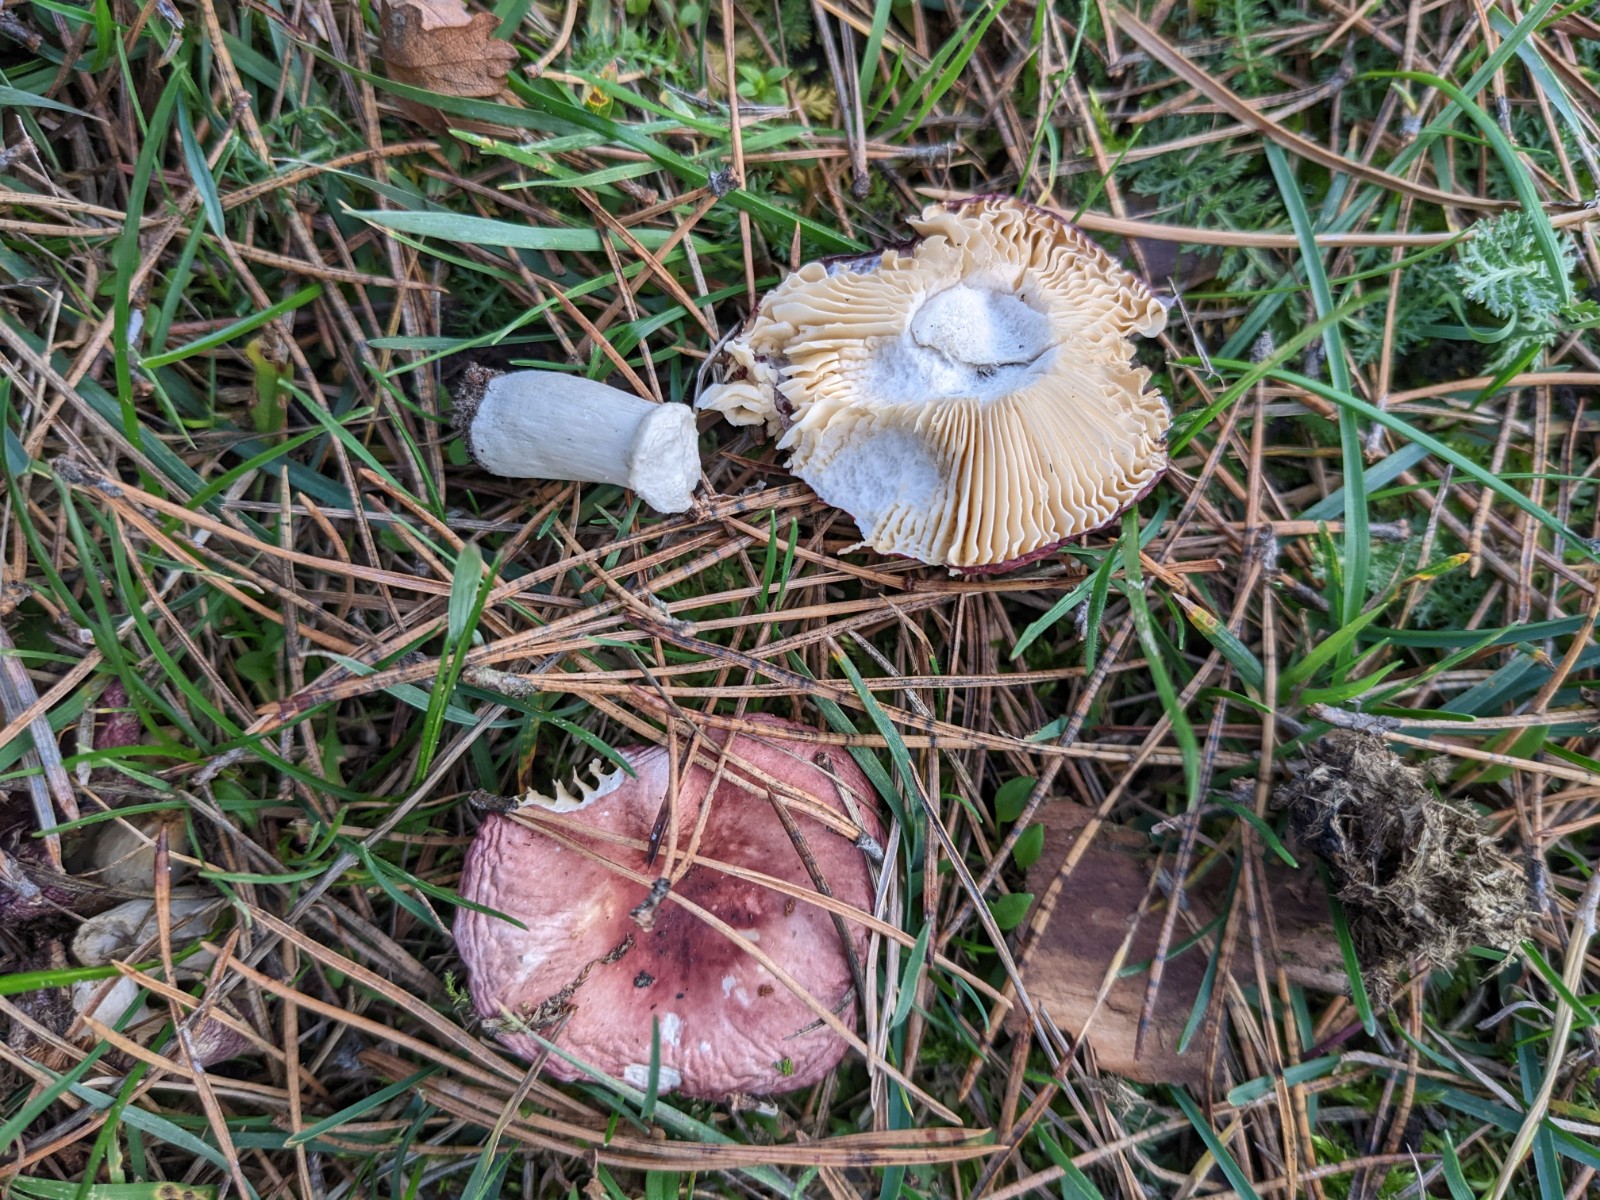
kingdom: Fungi
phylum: Basidiomycota
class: Agaricomycetes
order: Russulales
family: Russulaceae
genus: Russula
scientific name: Russula cessans
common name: fyrre-skørhat
